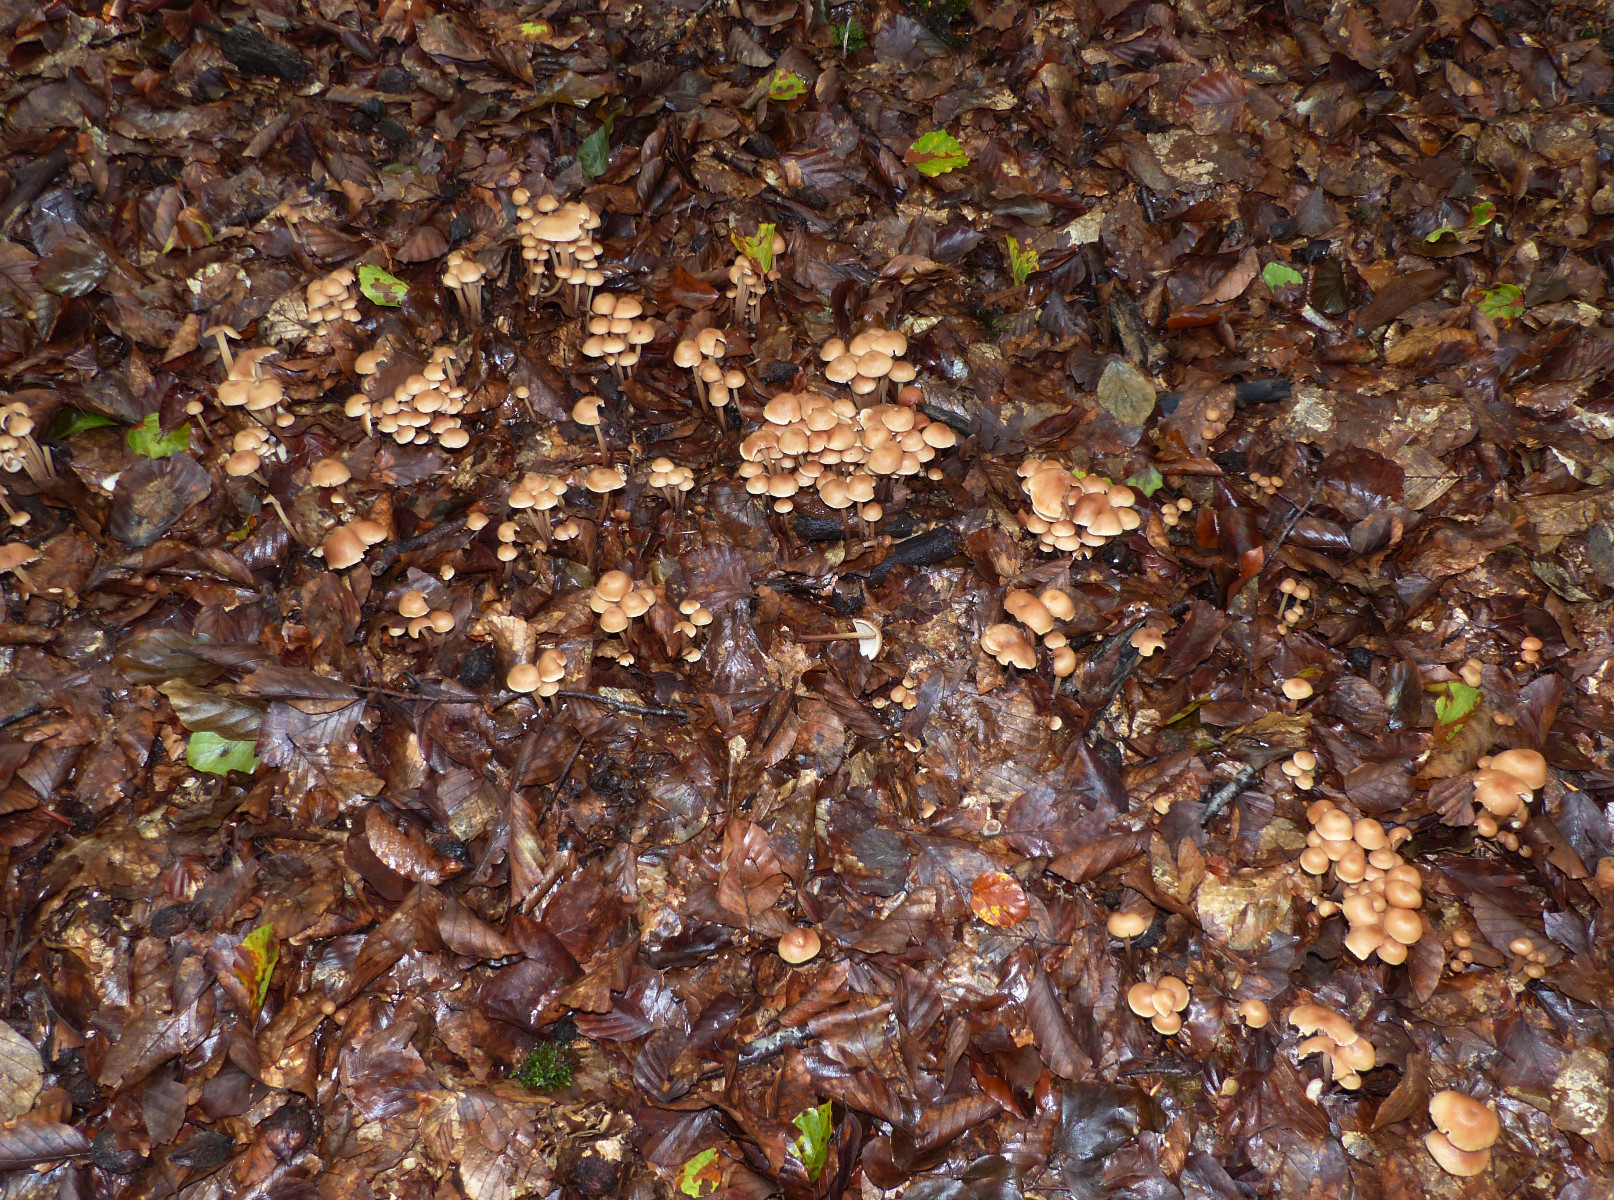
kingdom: Fungi
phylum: Basidiomycota
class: Agaricomycetes
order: Agaricales
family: Omphalotaceae
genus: Collybiopsis
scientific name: Collybiopsis confluens
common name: knippe-fladhat
